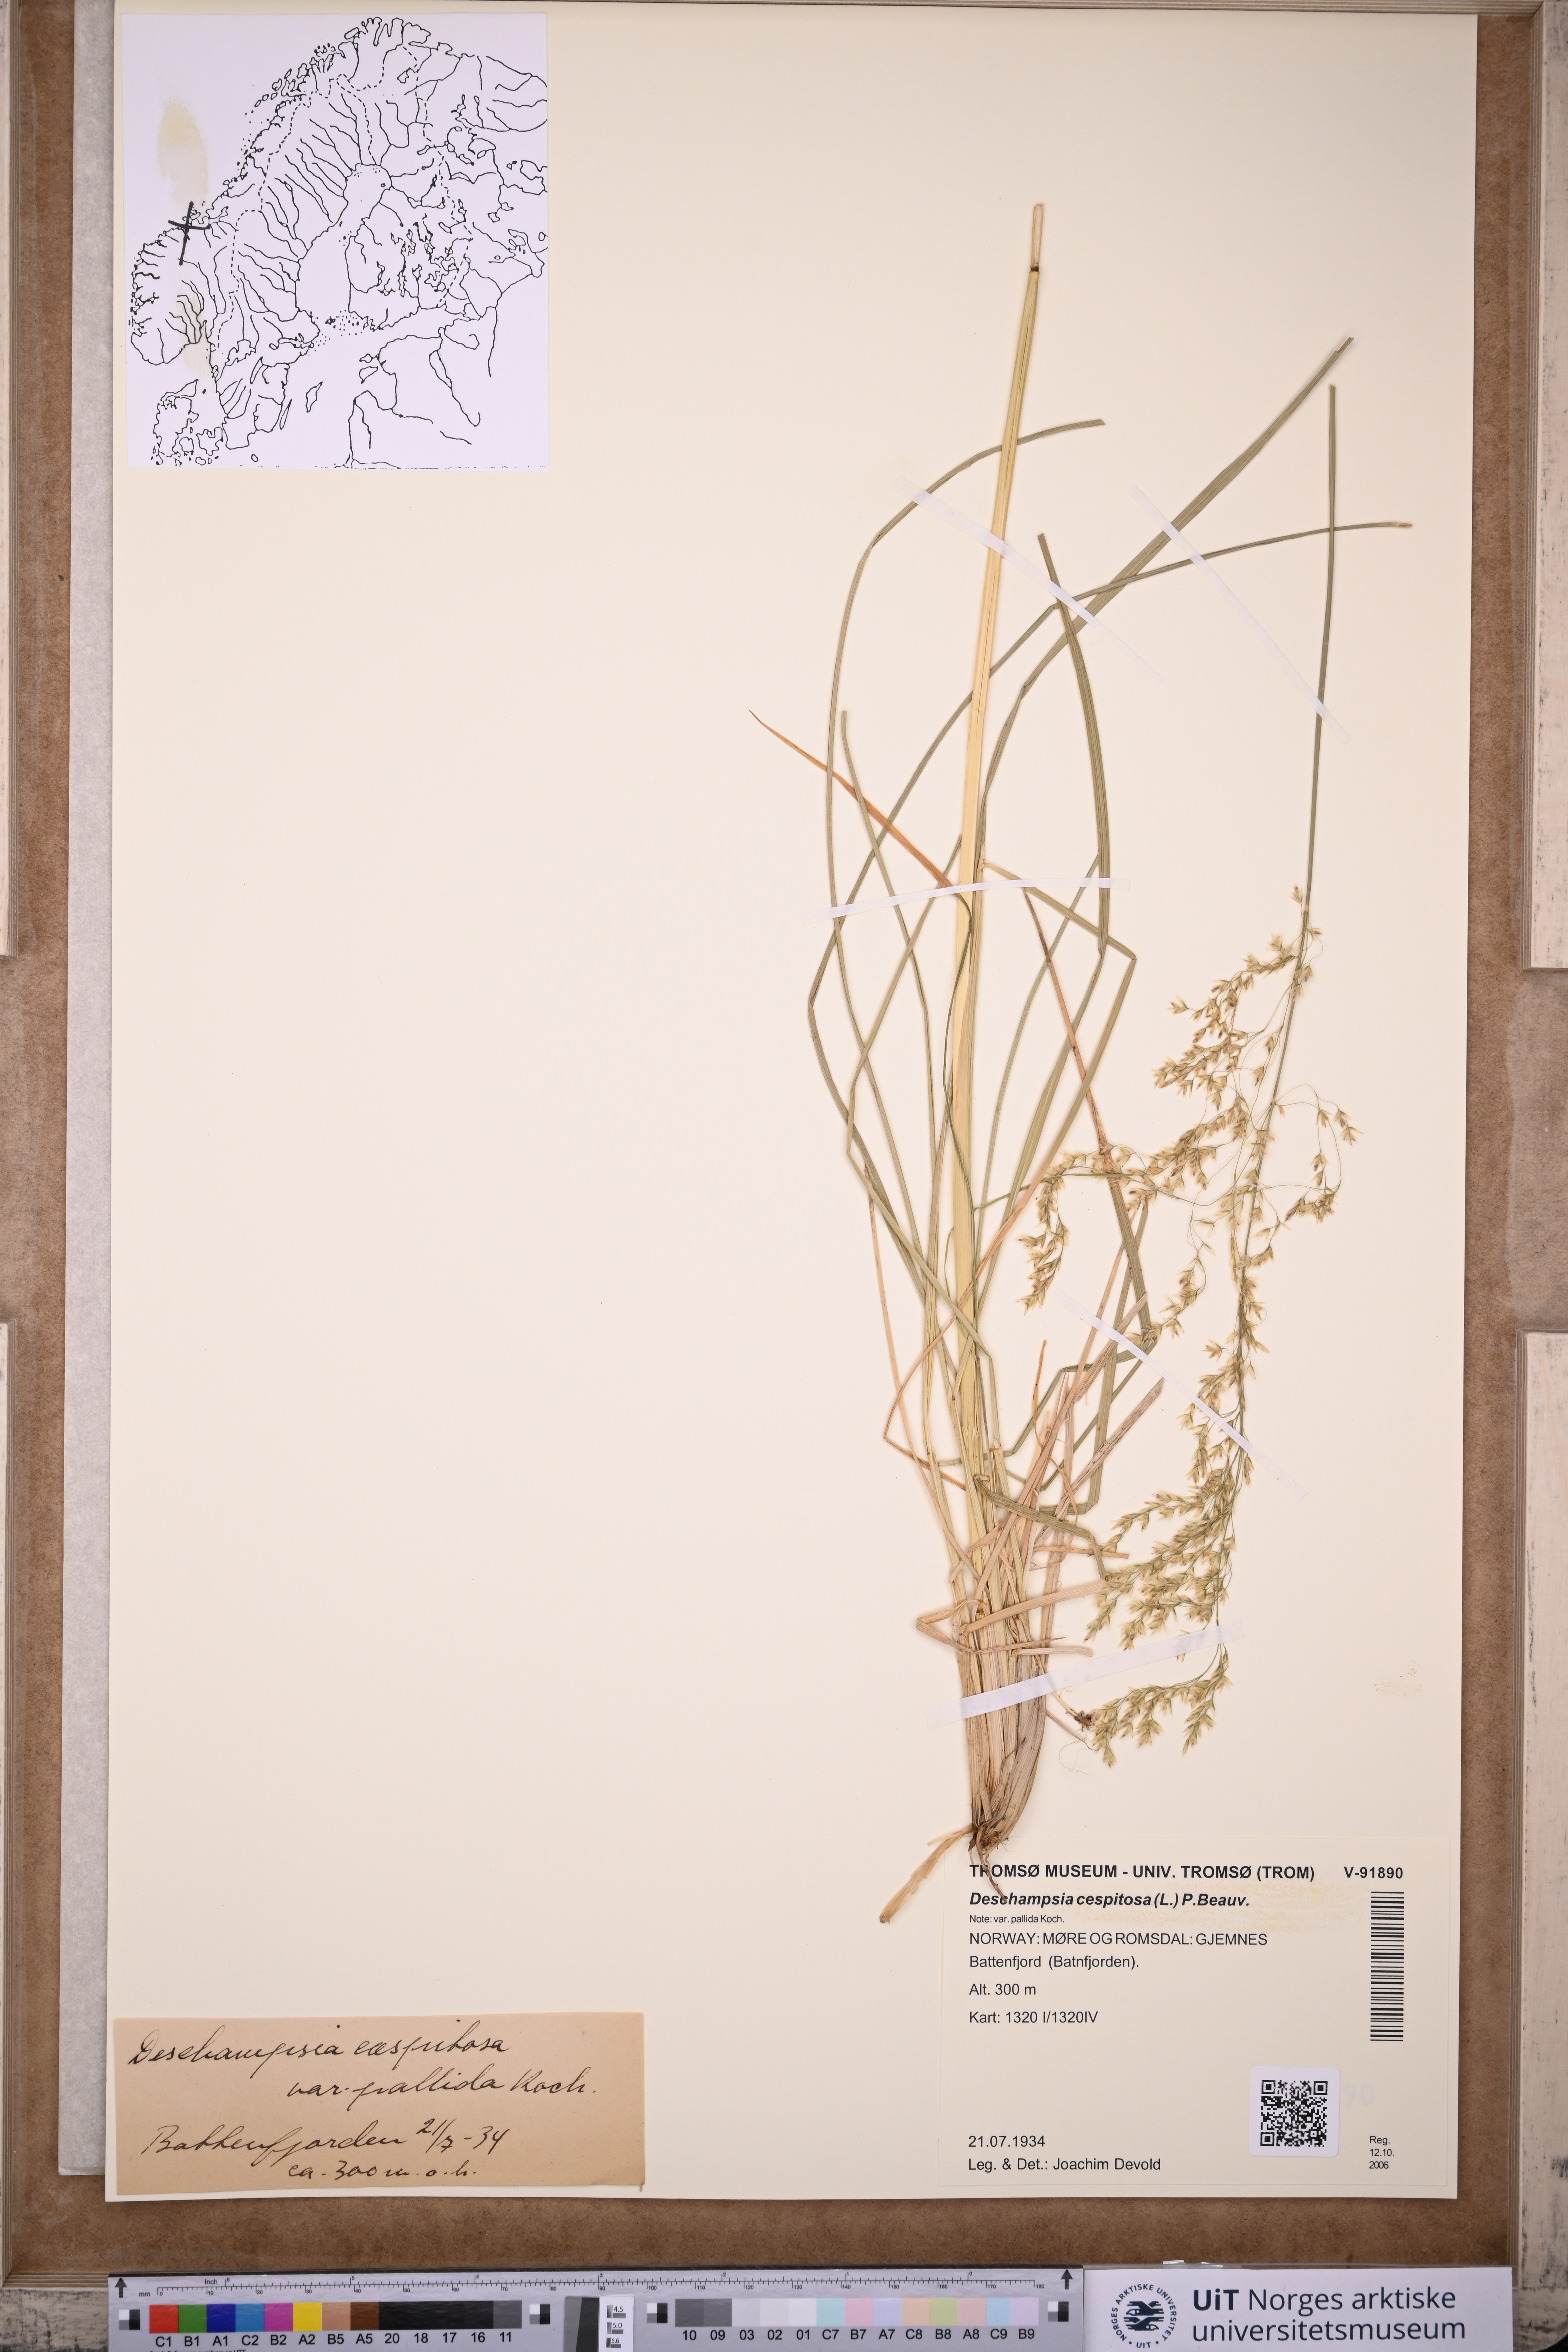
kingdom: Plantae
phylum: Tracheophyta
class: Liliopsida
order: Poales
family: Poaceae
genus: Deschampsia
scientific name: Deschampsia cespitosa
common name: Tufted hair-grass
